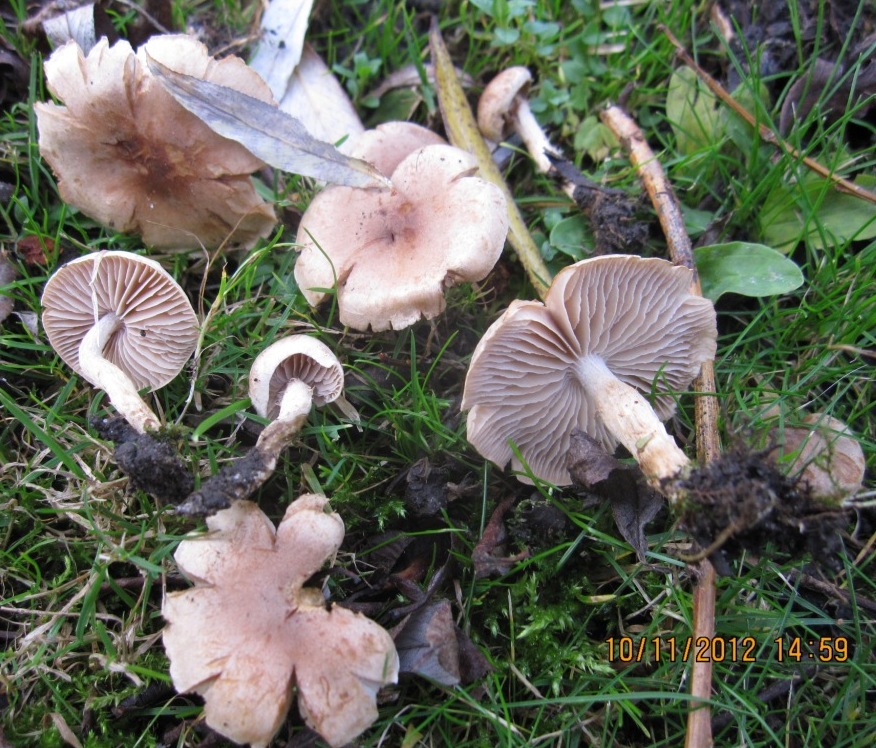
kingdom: Fungi
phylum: Basidiomycota
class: Agaricomycetes
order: Agaricales
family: Hymenogastraceae
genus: Hebeloma
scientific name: Hebeloma velatum
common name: knippe-tåreblad
